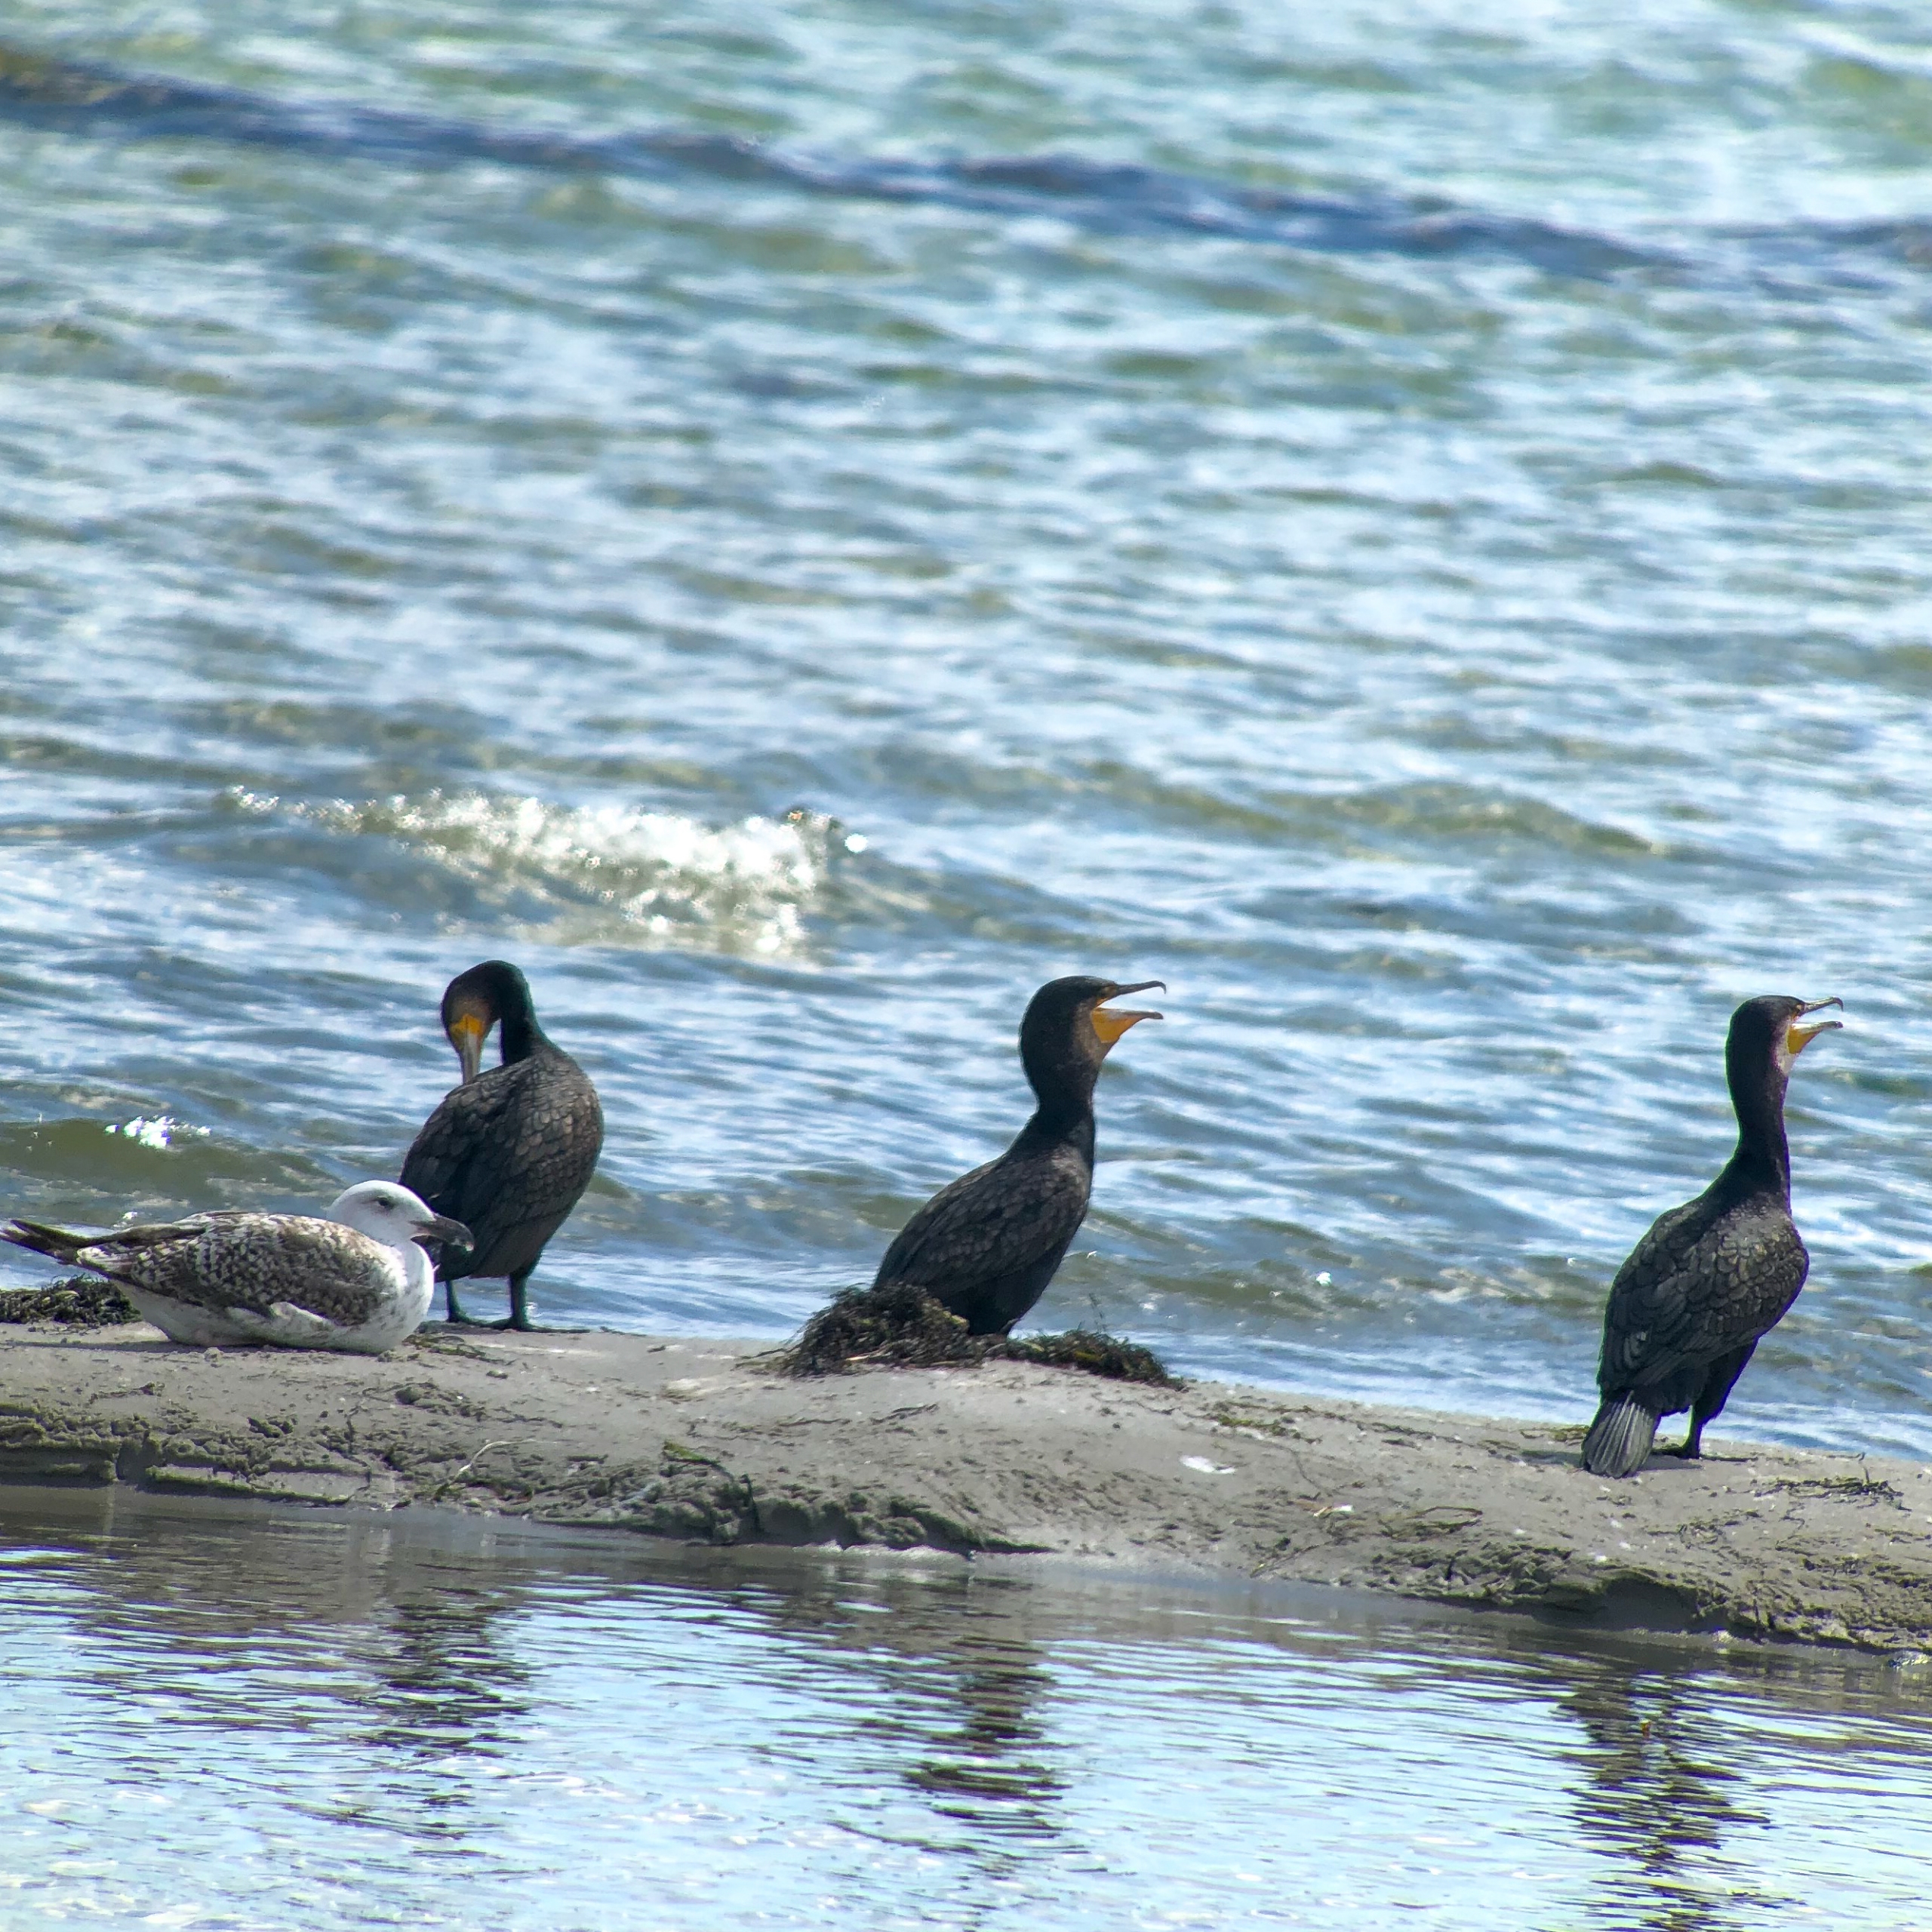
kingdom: Animalia
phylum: Chordata
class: Aves
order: Suliformes
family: Phalacrocoracidae
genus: Phalacrocorax
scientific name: Phalacrocorax carbo
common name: Skarv
